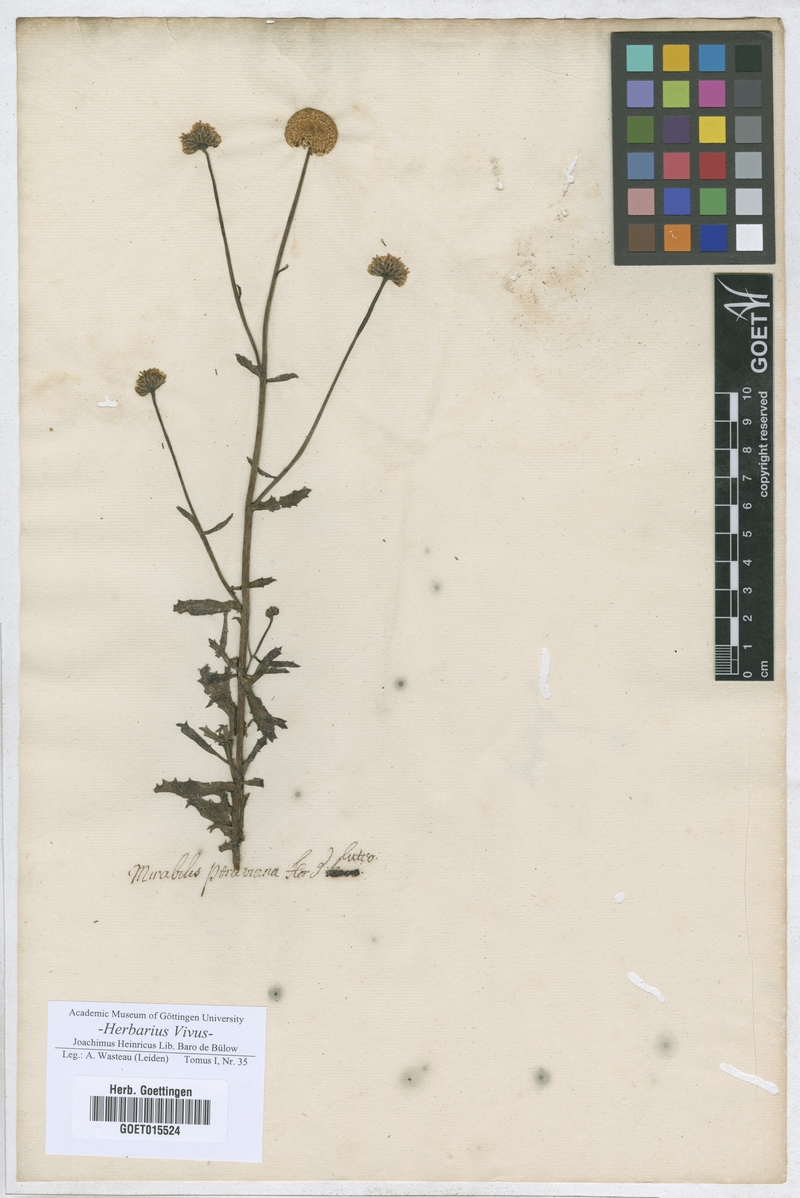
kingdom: Plantae
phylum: Tracheophyta
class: Magnoliopsida
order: Caryophyllales
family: Nyctaginaceae
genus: Mirabilis
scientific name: Mirabilis
